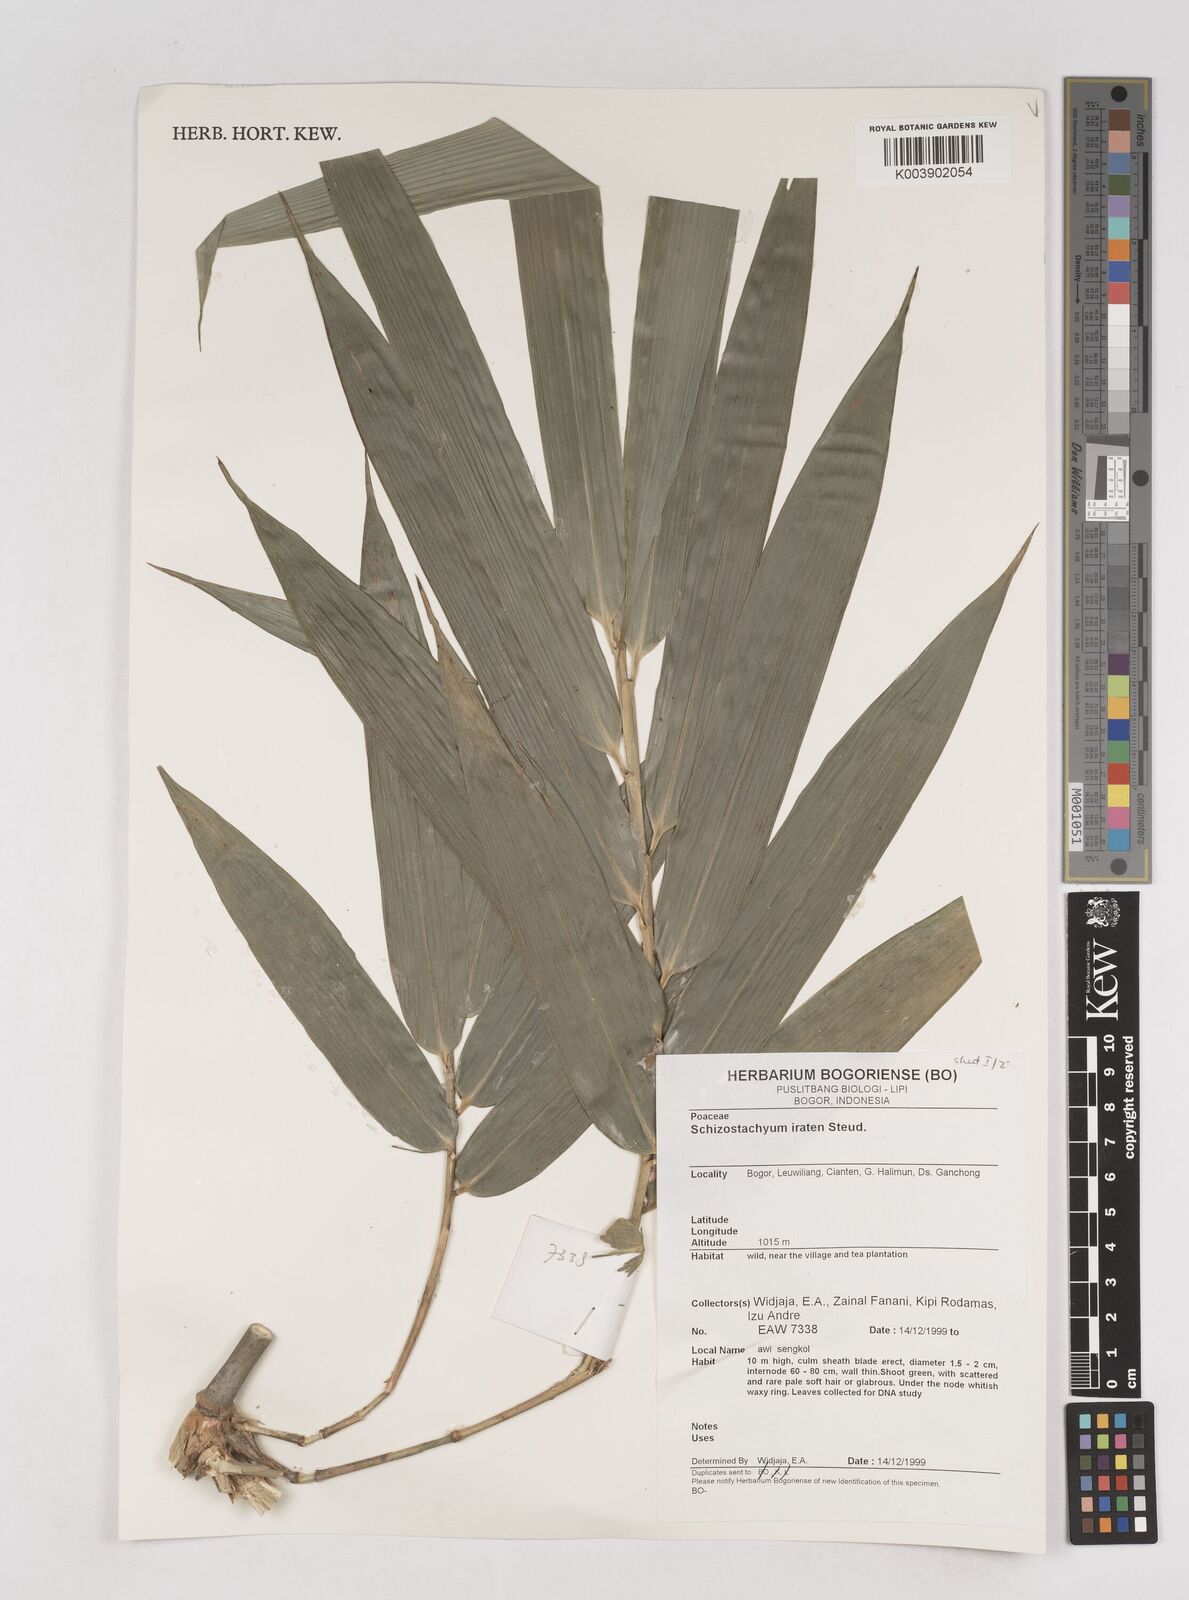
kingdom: Plantae
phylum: Tracheophyta
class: Liliopsida
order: Poales
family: Poaceae
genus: Schizostachyum
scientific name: Schizostachyum iraten
